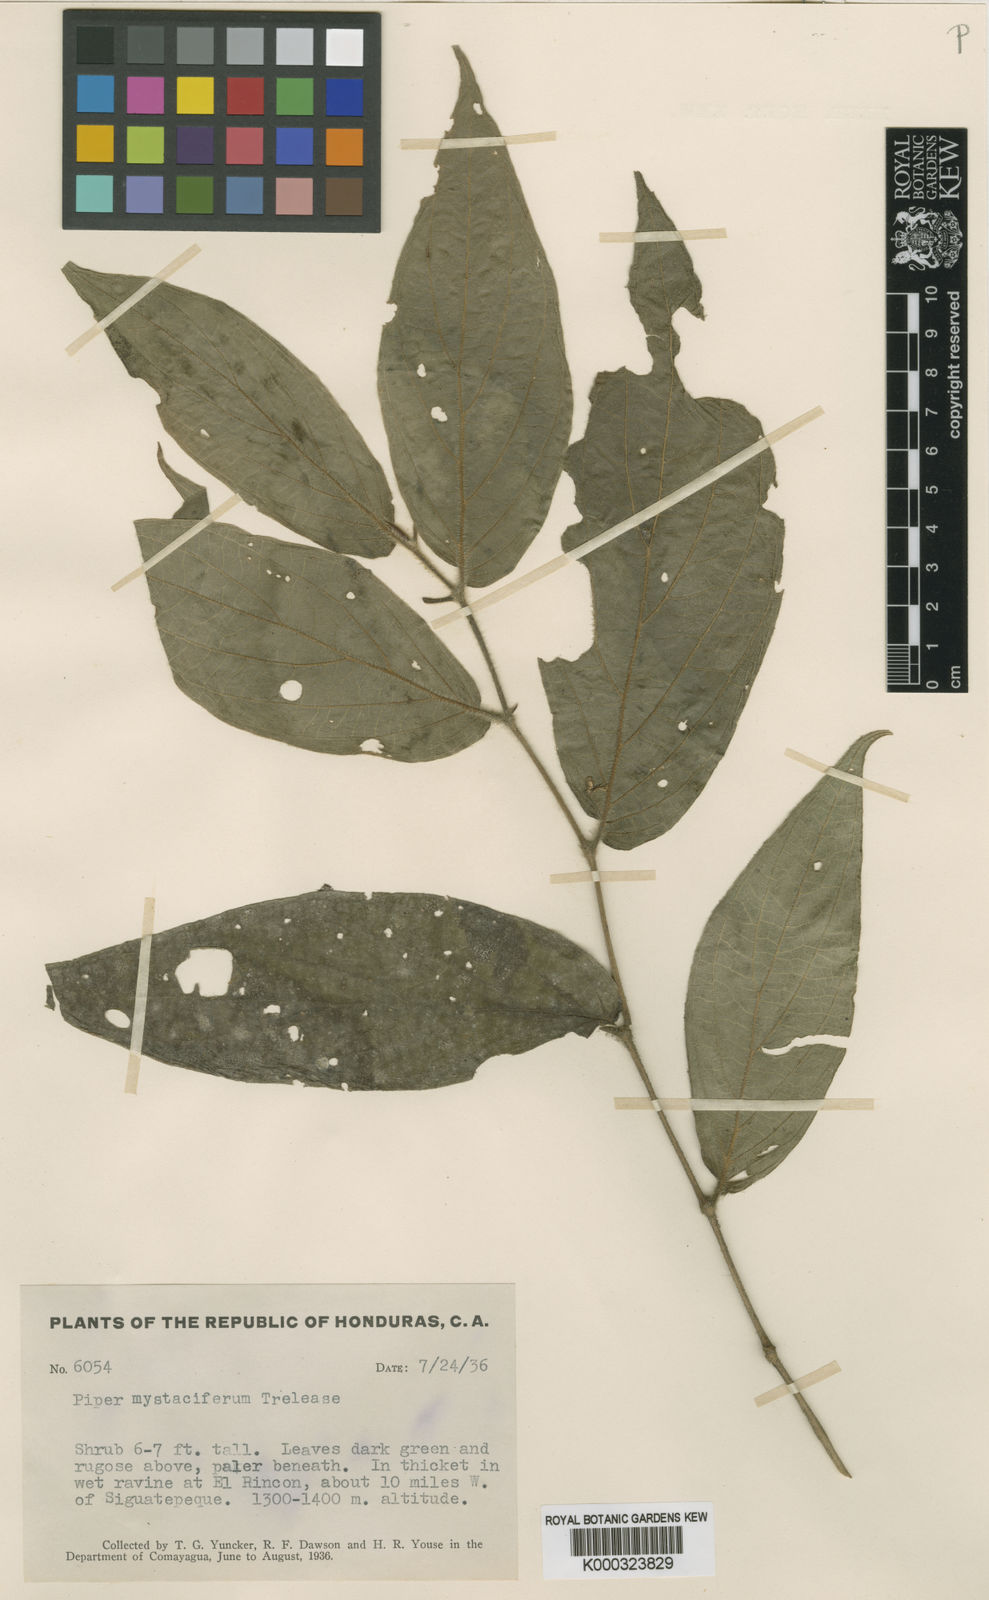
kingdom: Plantae
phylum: Tracheophyta
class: Magnoliopsida
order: Piperales
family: Piperaceae
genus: Piper
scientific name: Piper villiramulum
